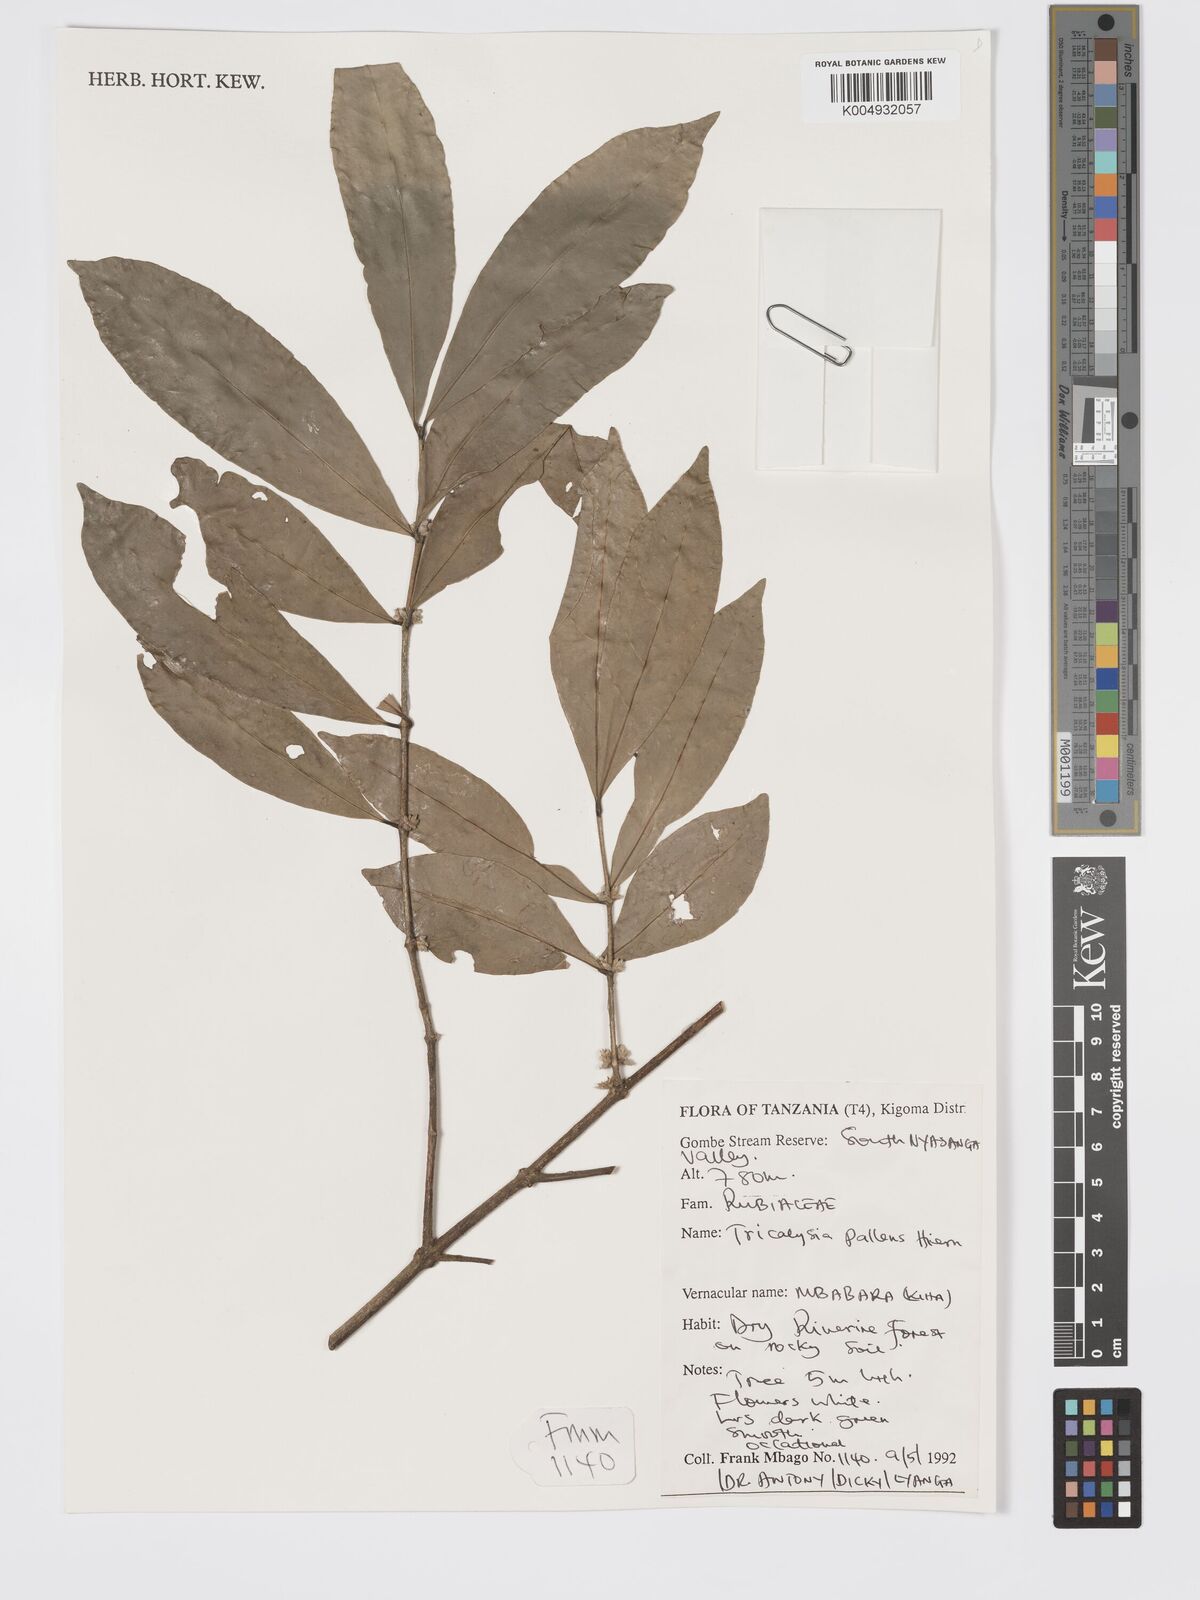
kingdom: Plantae
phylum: Tracheophyta
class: Magnoliopsida
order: Gentianales
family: Rubiaceae
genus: Tricalysia
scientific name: Tricalysia pallens
